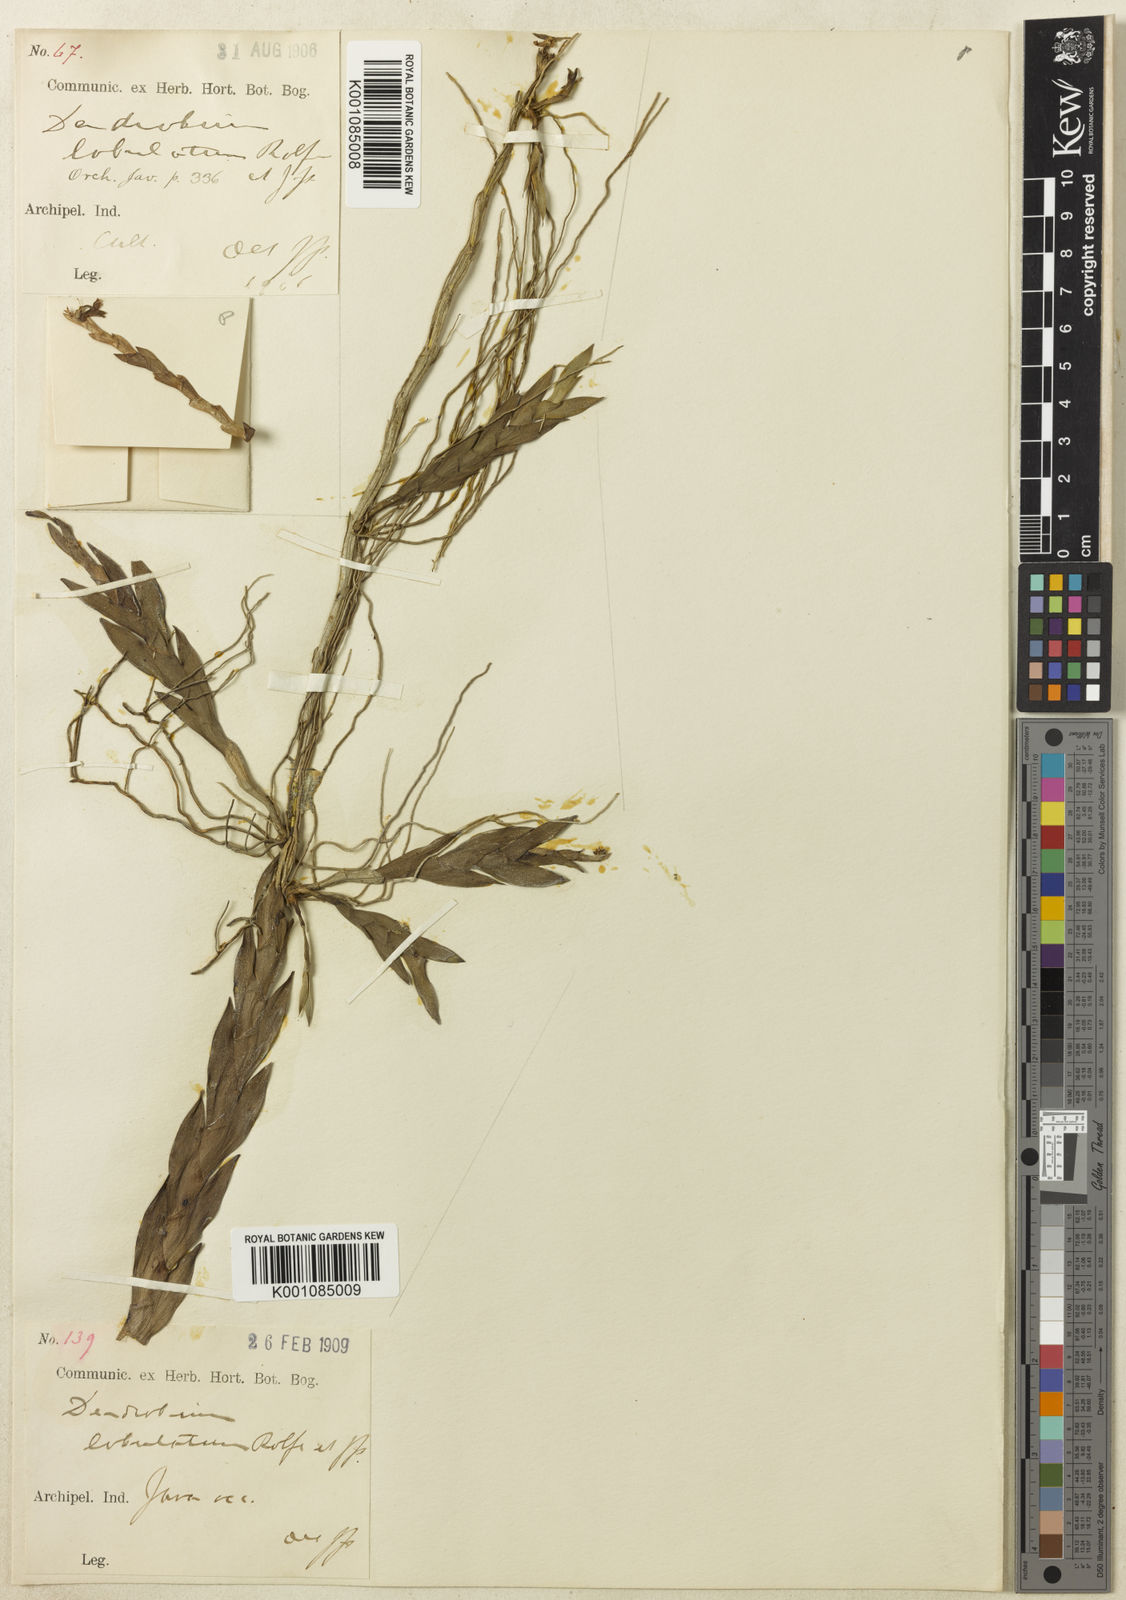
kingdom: Plantae
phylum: Tracheophyta
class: Liliopsida
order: Asparagales
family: Orchidaceae
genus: Dendrobium
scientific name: Dendrobium lobulatum
